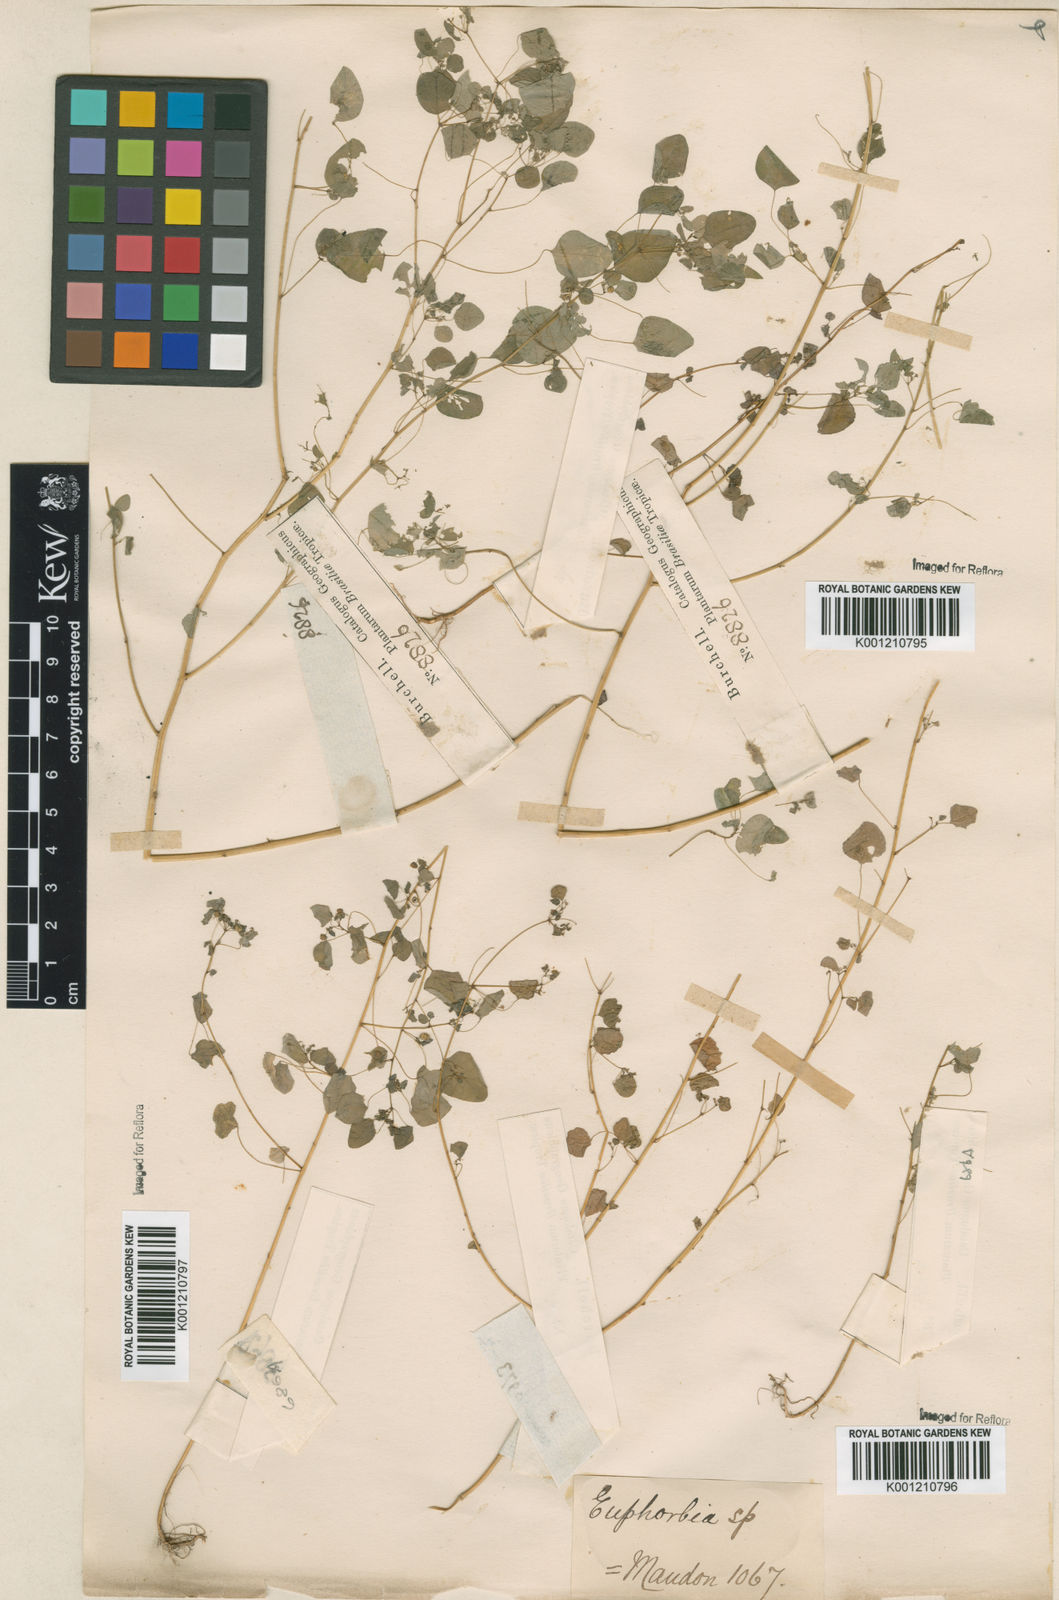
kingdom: Plantae
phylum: Tracheophyta
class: Magnoliopsida
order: Malpighiales
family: Euphorbiaceae
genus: Euphorbia
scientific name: Euphorbia ocymoidea
